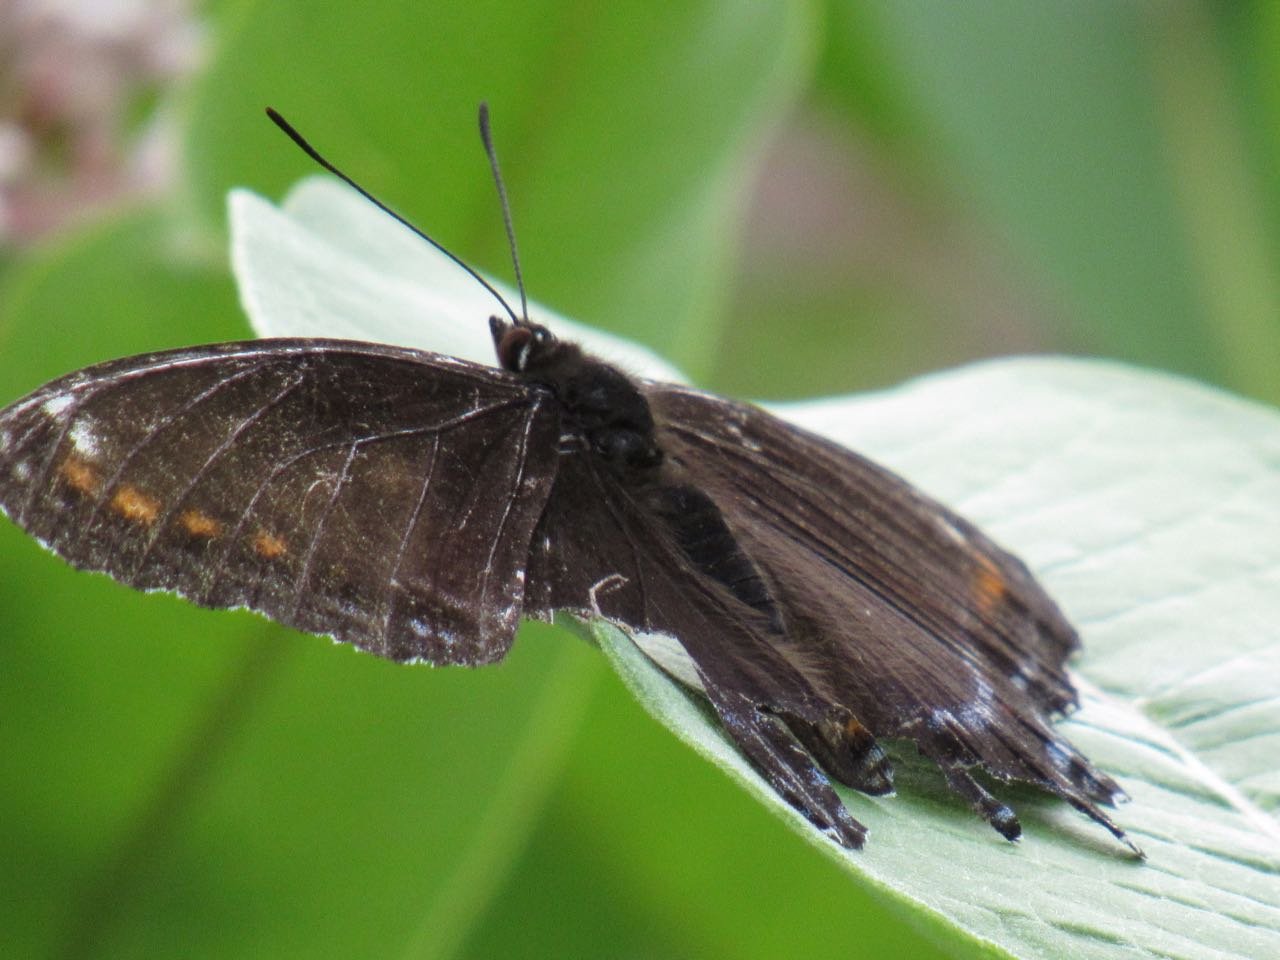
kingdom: Animalia
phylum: Arthropoda
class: Insecta
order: Lepidoptera
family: Nymphalidae
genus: Limenitis
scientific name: Limenitis
